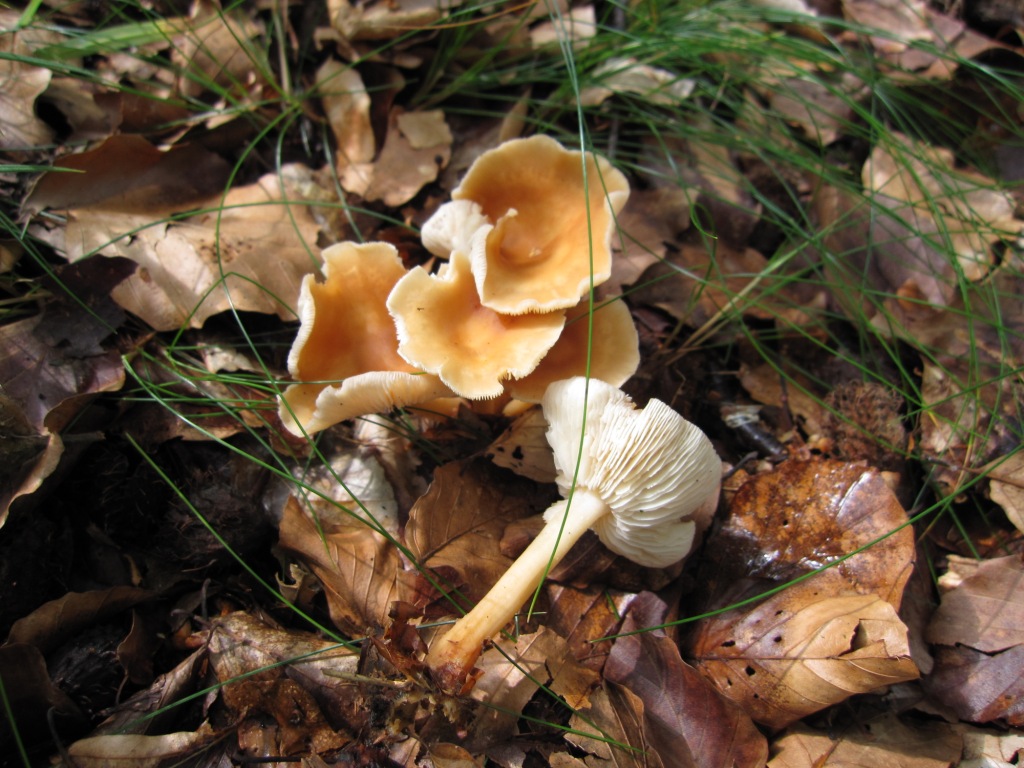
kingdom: Fungi
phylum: Basidiomycota
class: Agaricomycetes
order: Agaricales
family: Omphalotaceae
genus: Gymnopus
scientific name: Gymnopus dryophilus
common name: løv-fladhat
